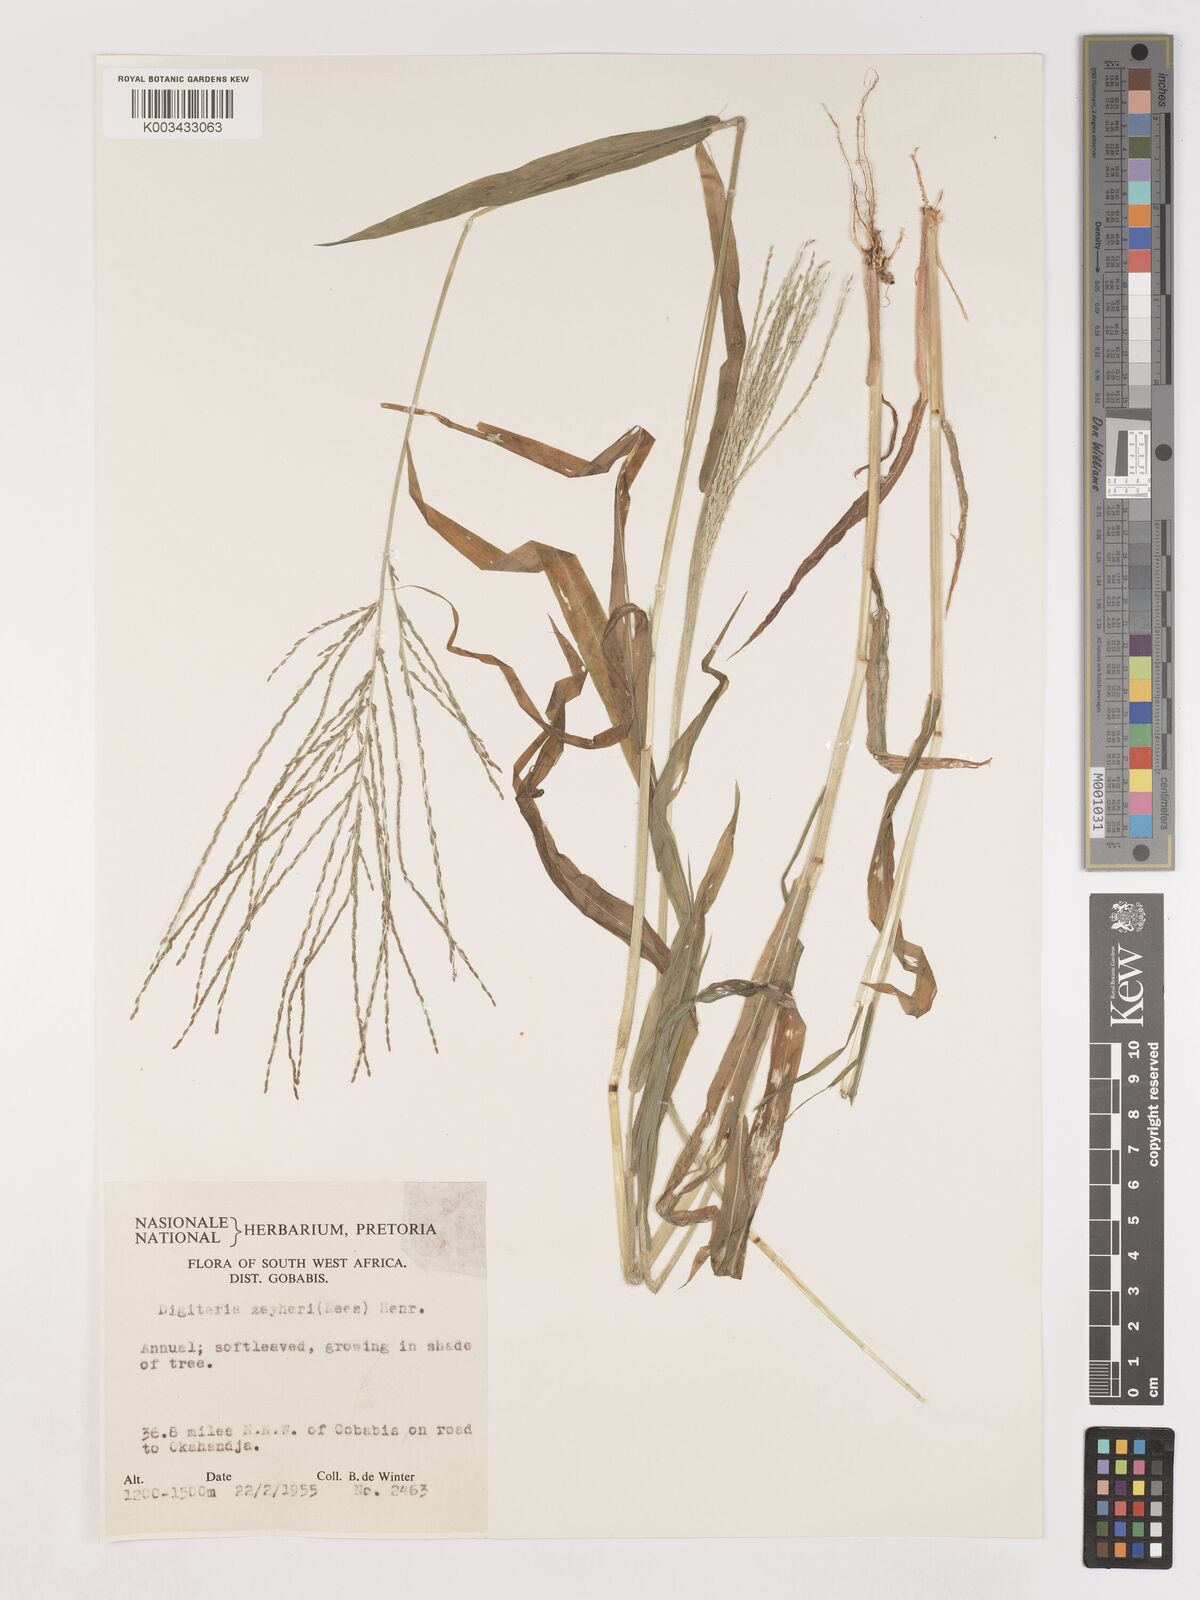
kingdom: Plantae
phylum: Tracheophyta
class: Liliopsida
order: Poales
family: Poaceae
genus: Digitaria
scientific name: Digitaria velutina
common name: Long-plume finger grass
